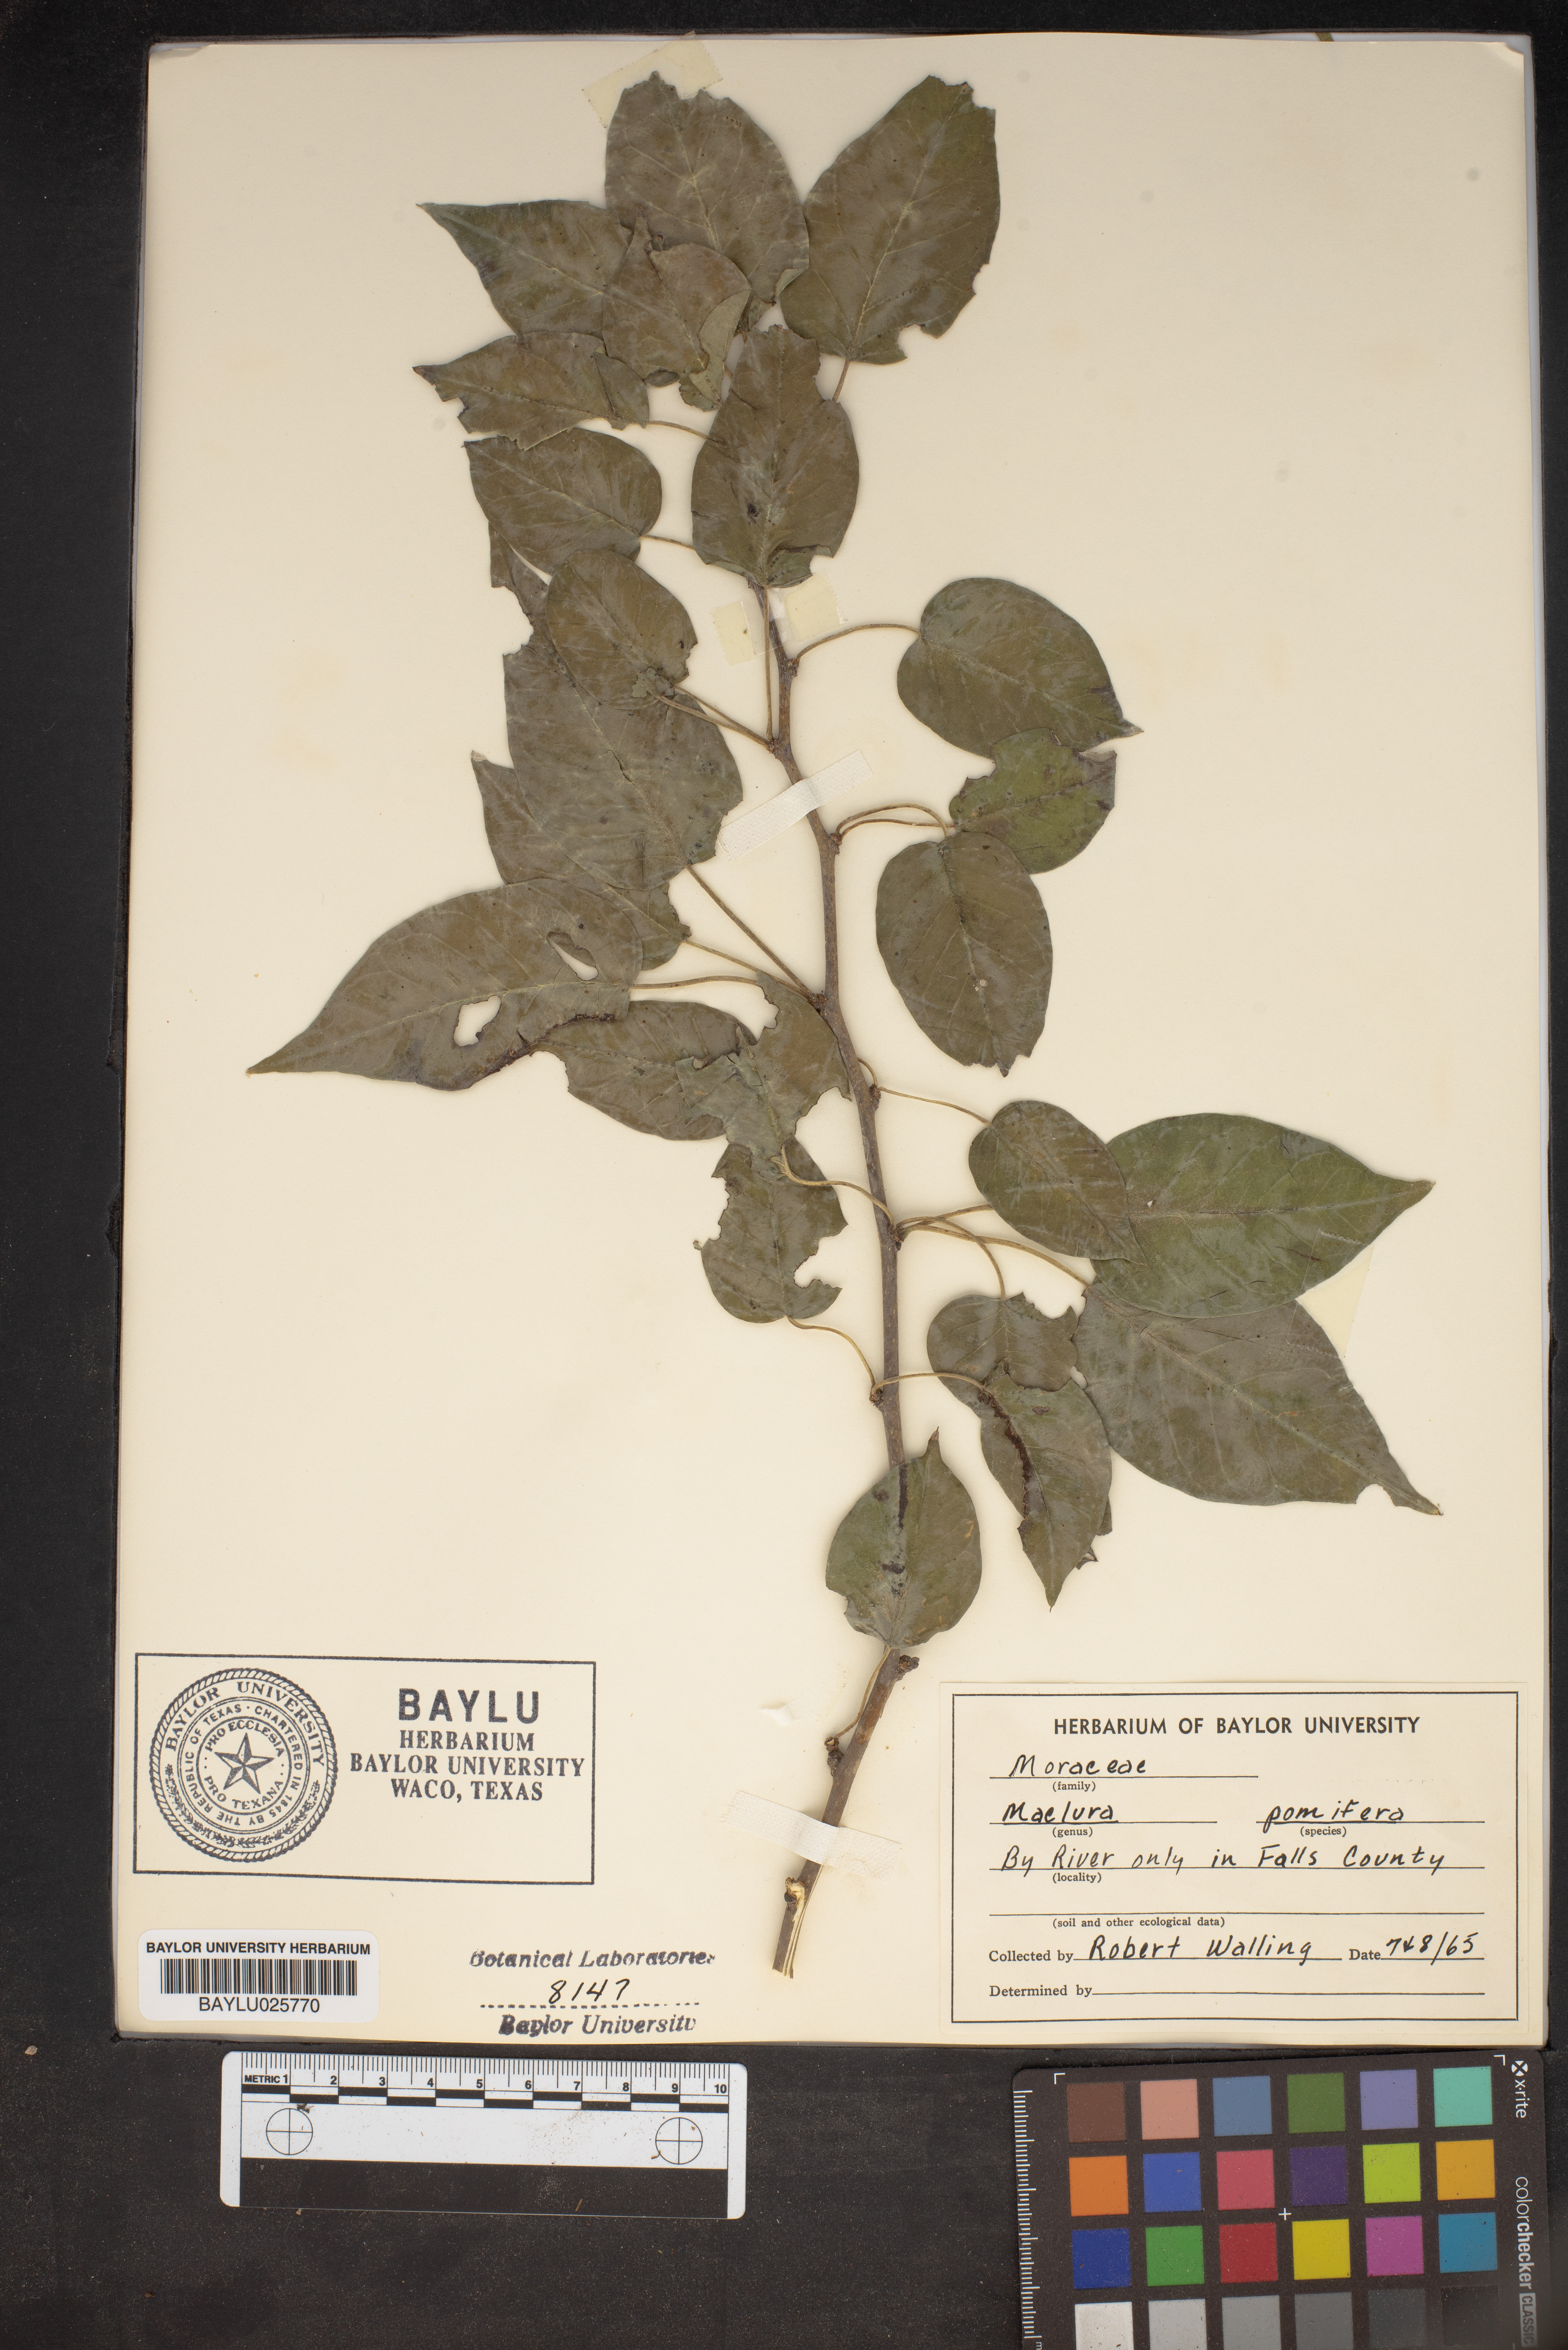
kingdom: Plantae
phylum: Tracheophyta
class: Magnoliopsida
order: Rosales
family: Moraceae
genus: Maclura
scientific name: Maclura pomifera
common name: Osage-orange
